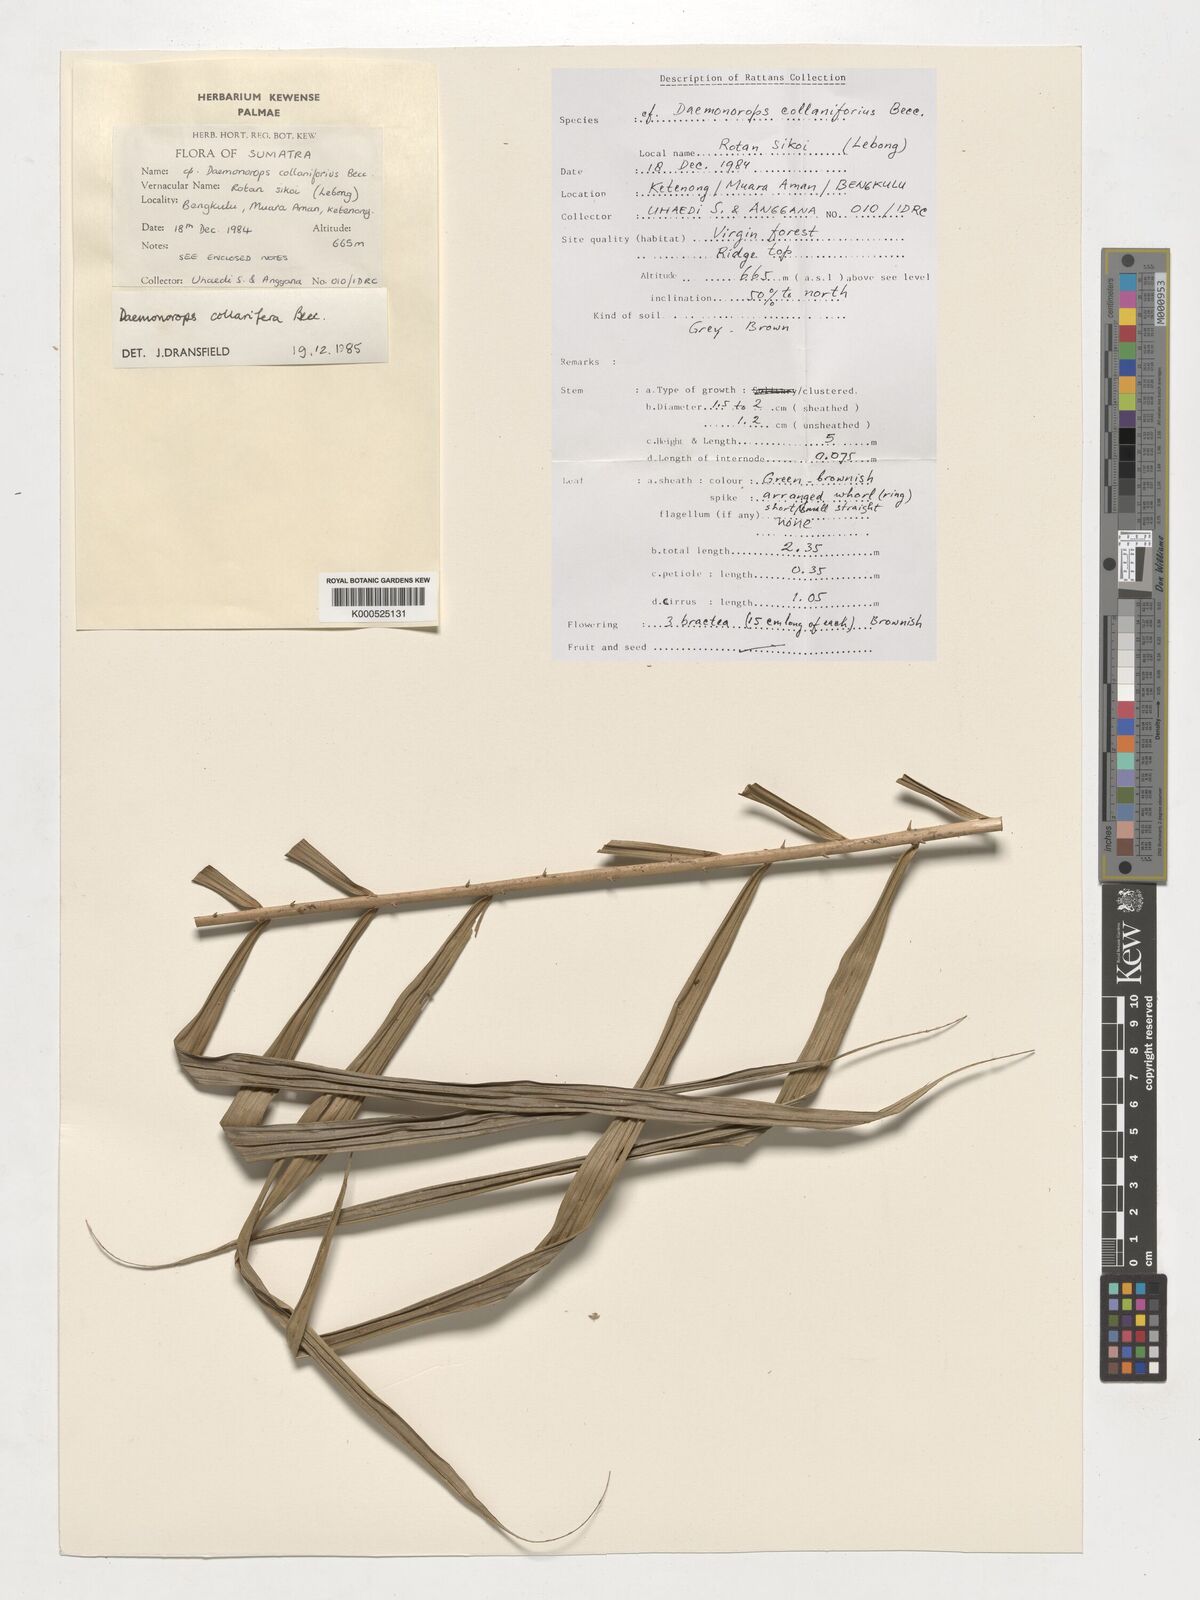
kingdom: Plantae
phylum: Tracheophyta
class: Liliopsida
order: Arecales
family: Arecaceae
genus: Calamus
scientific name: Calamus geniculatus
